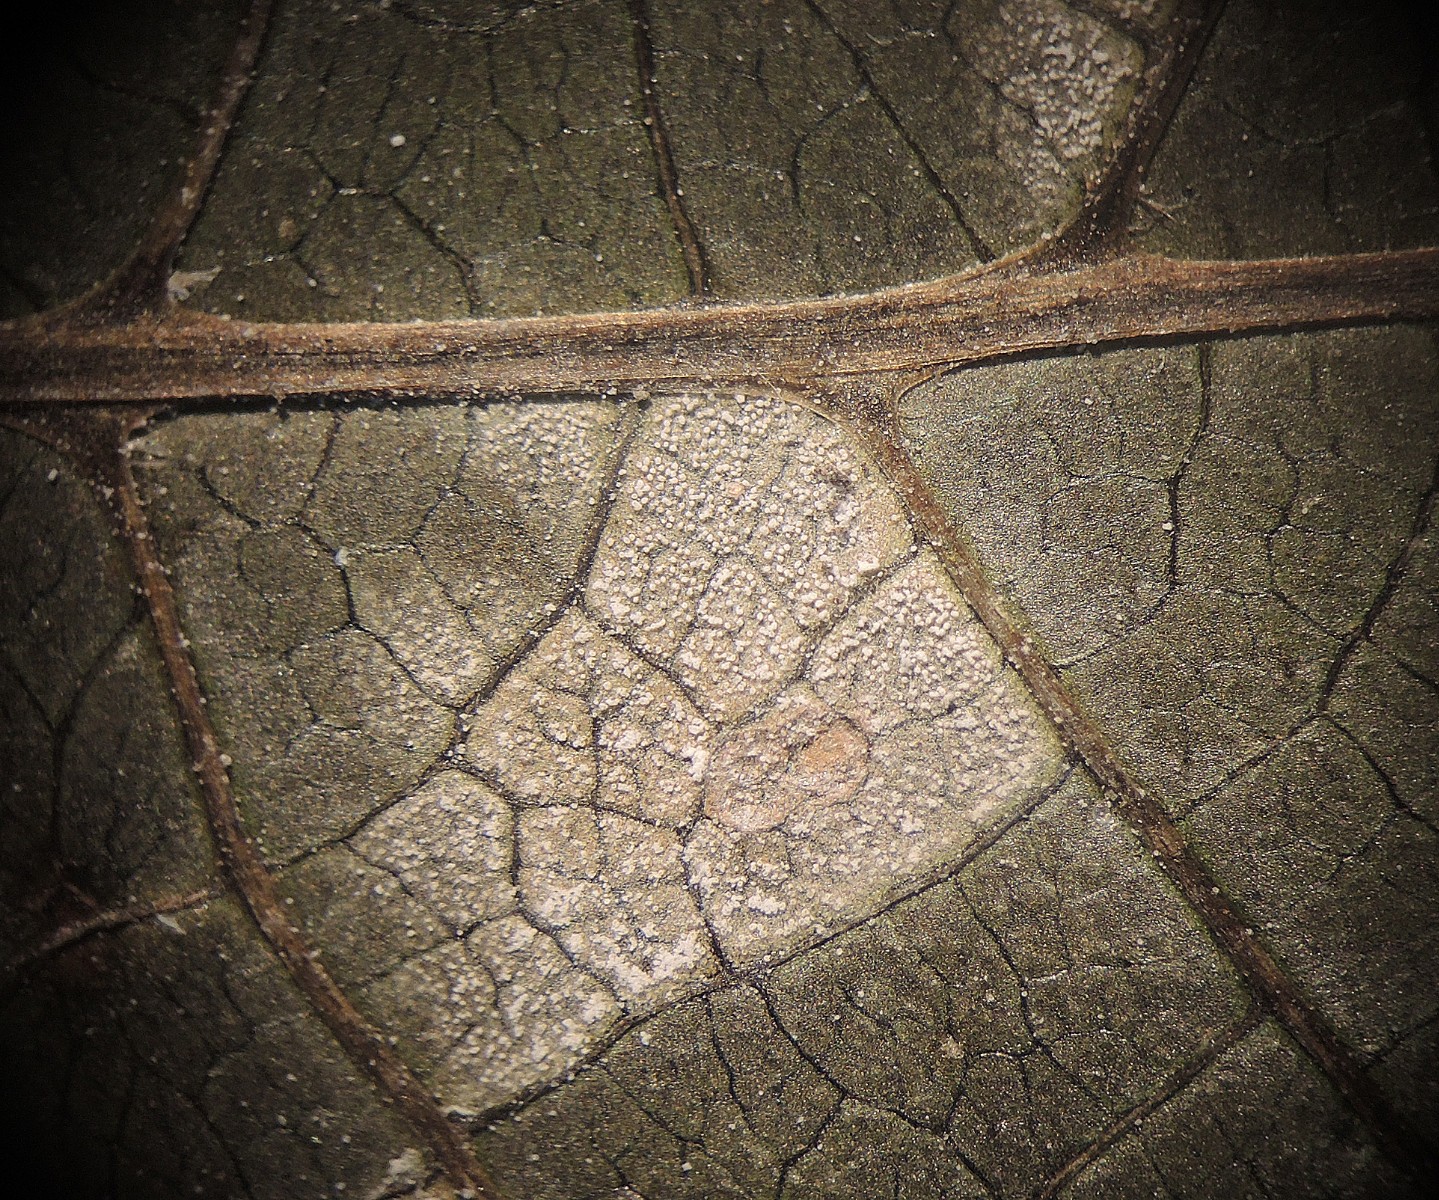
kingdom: Fungi
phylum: Basidiomycota
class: Exobasidiomycetes
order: Microstromatales
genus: Pseudomicrostroma
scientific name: Pseudomicrostroma juglandis
